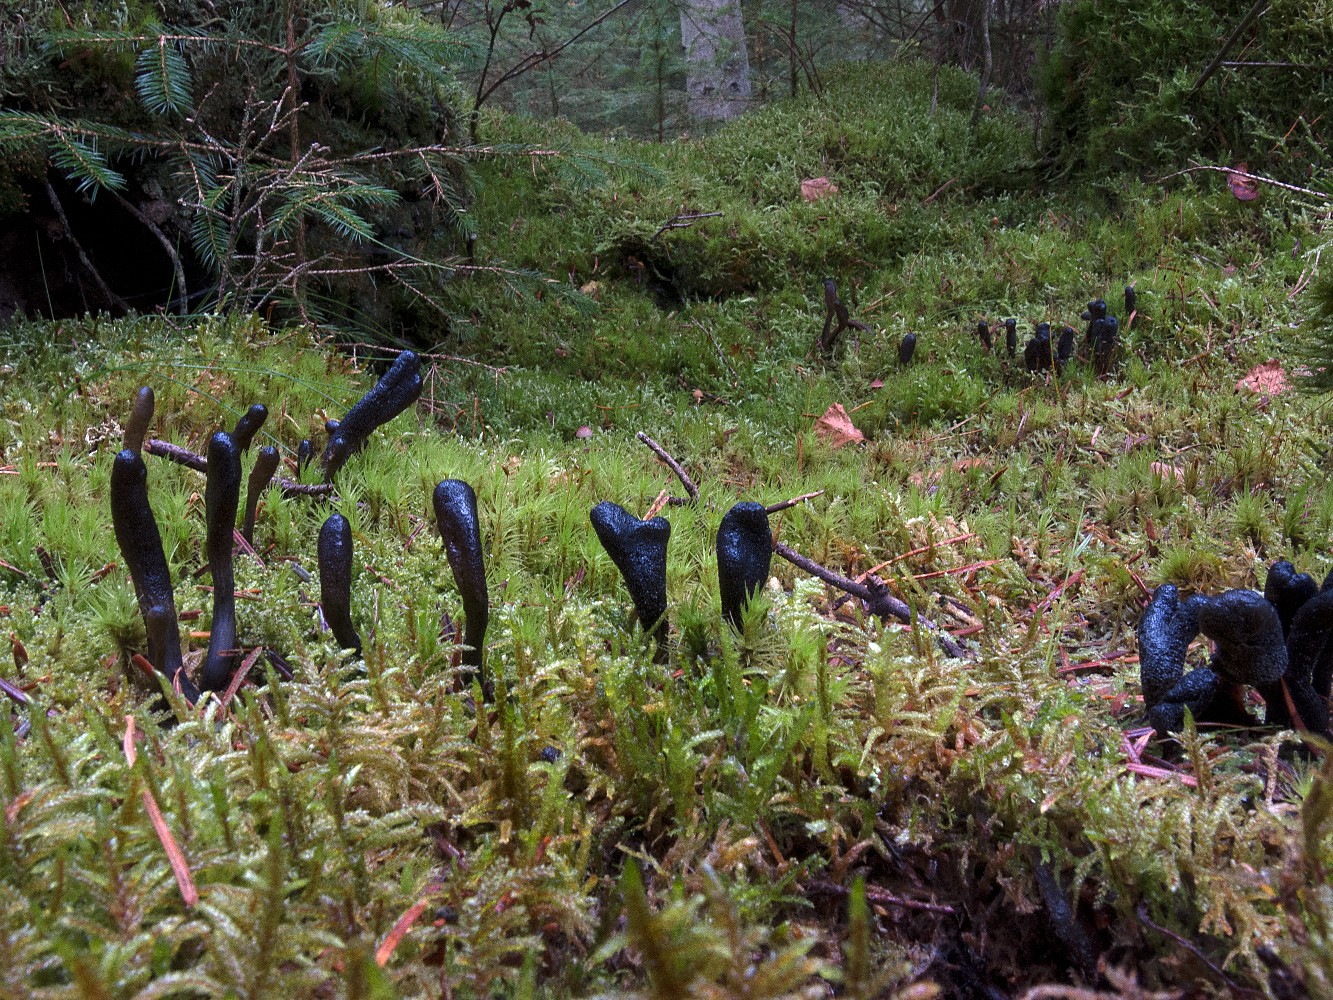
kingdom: Fungi
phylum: Ascomycota
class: Sordariomycetes
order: Hypocreales
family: Ophiocordycipitaceae
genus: Tolypocladium
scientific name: Tolypocladium ophioglossoides
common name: slank snyltekølle
